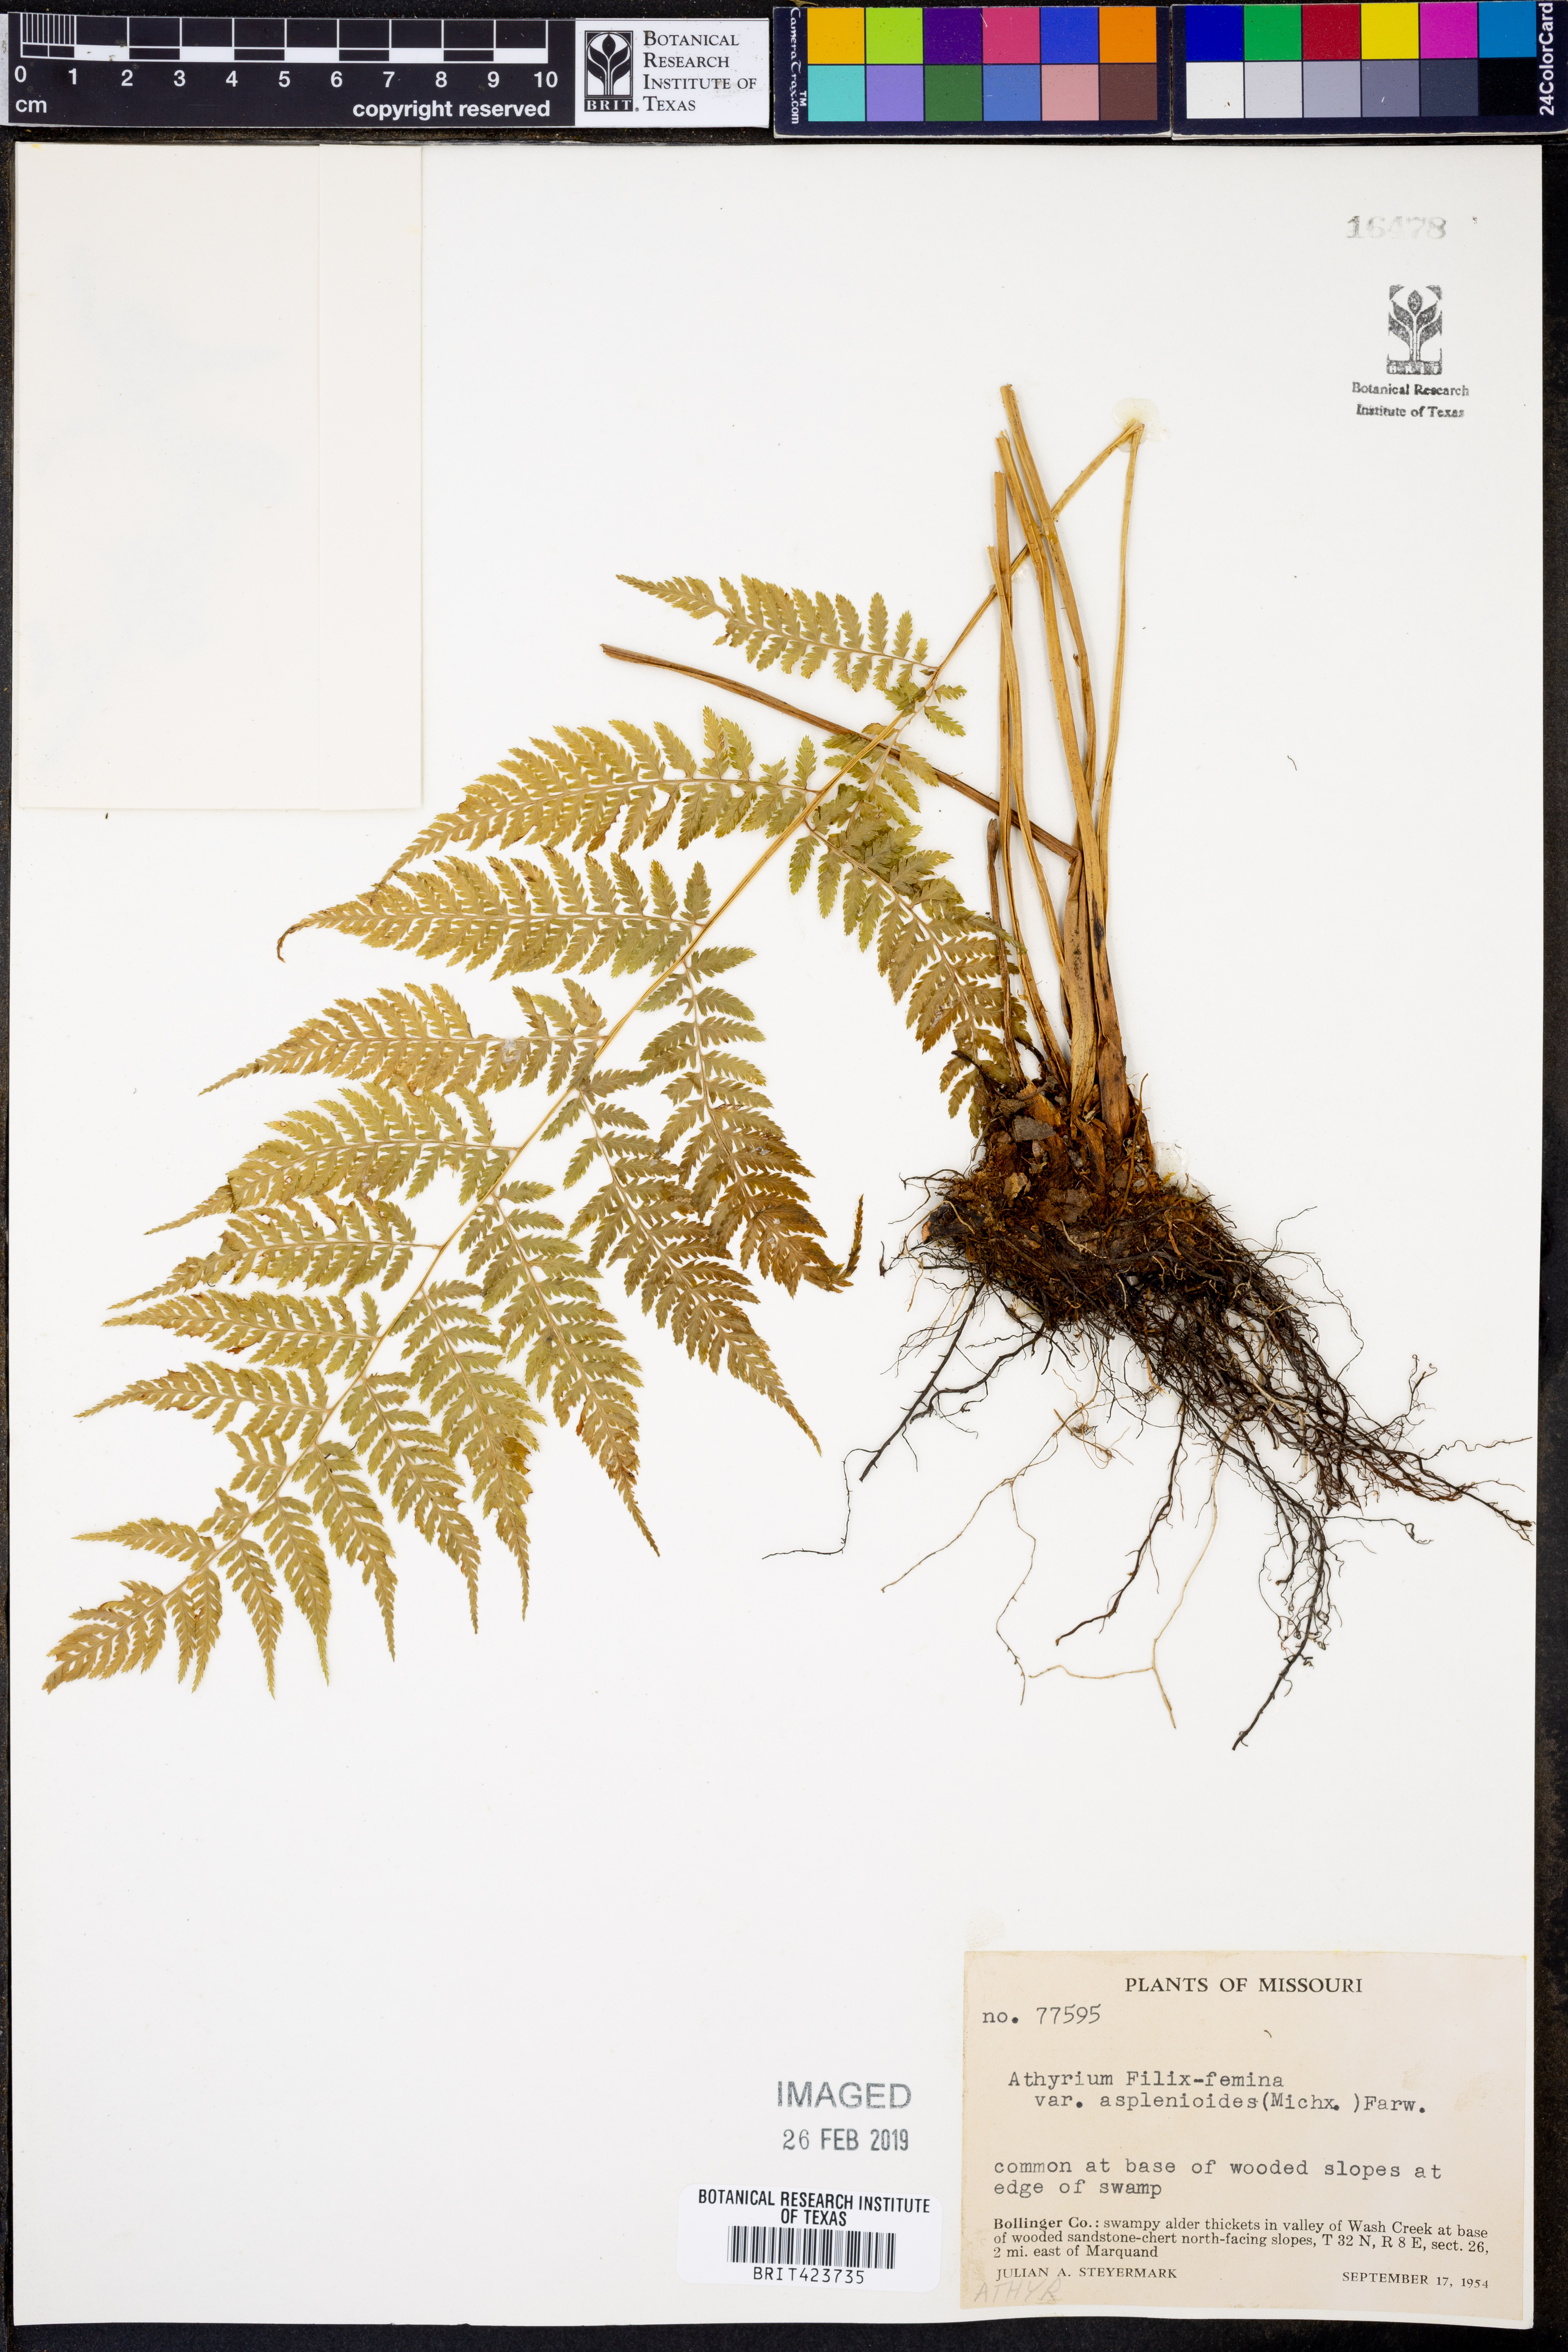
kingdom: Plantae
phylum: Tracheophyta
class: Polypodiopsida
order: Polypodiales
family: Athyriaceae
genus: Athyrium
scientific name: Athyrium asplenioides
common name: Southern lady fern
